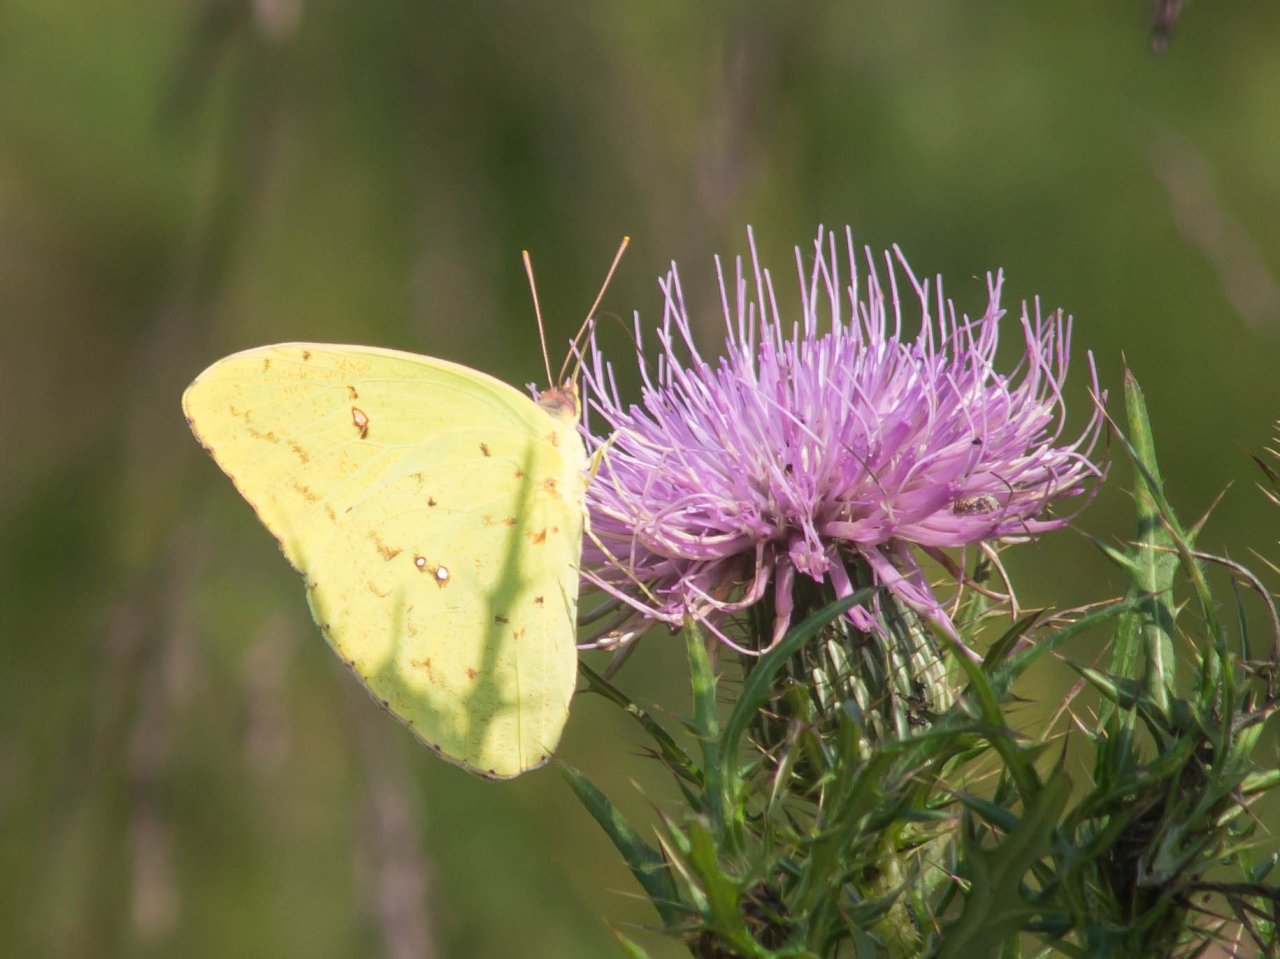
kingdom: Animalia
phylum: Arthropoda
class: Insecta
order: Lepidoptera
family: Pieridae
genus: Phoebis
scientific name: Phoebis sennae
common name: Cloudless Sulphur
